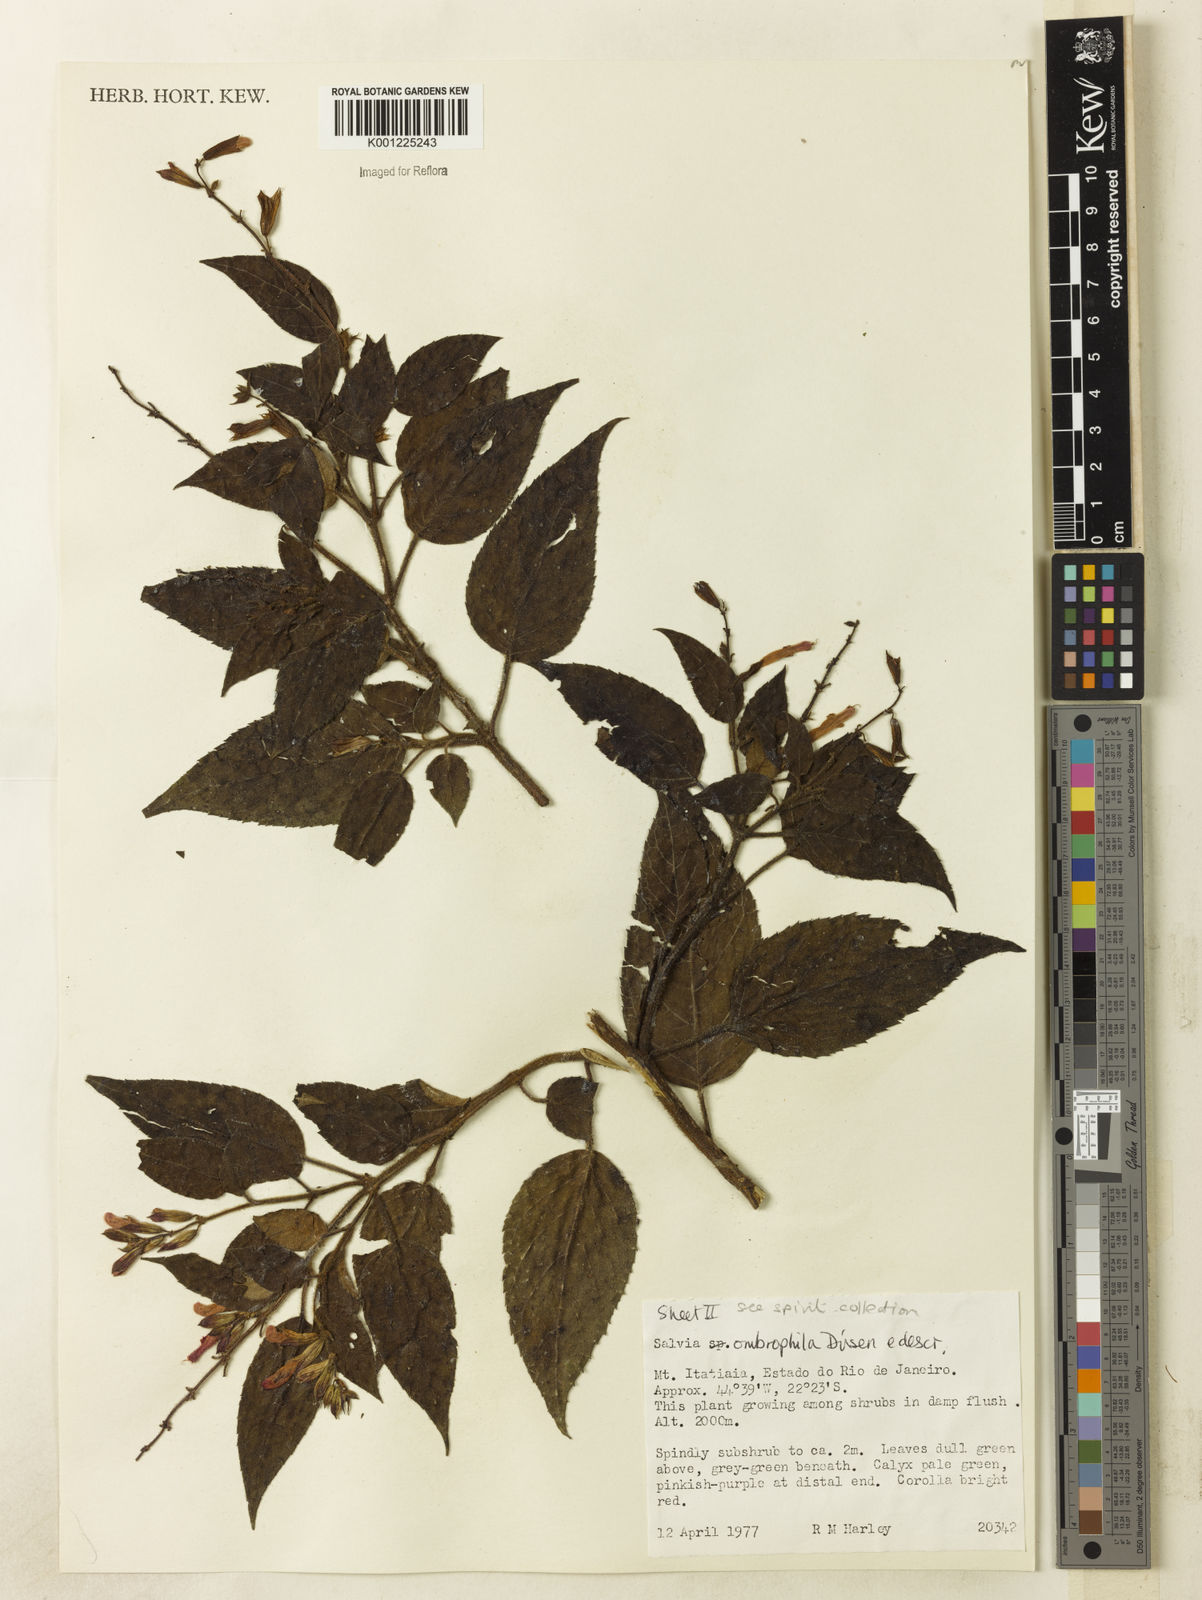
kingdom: Plantae
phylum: Tracheophyta
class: Magnoliopsida
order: Lamiales
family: Lamiaceae
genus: Salvia
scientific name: Salvia
